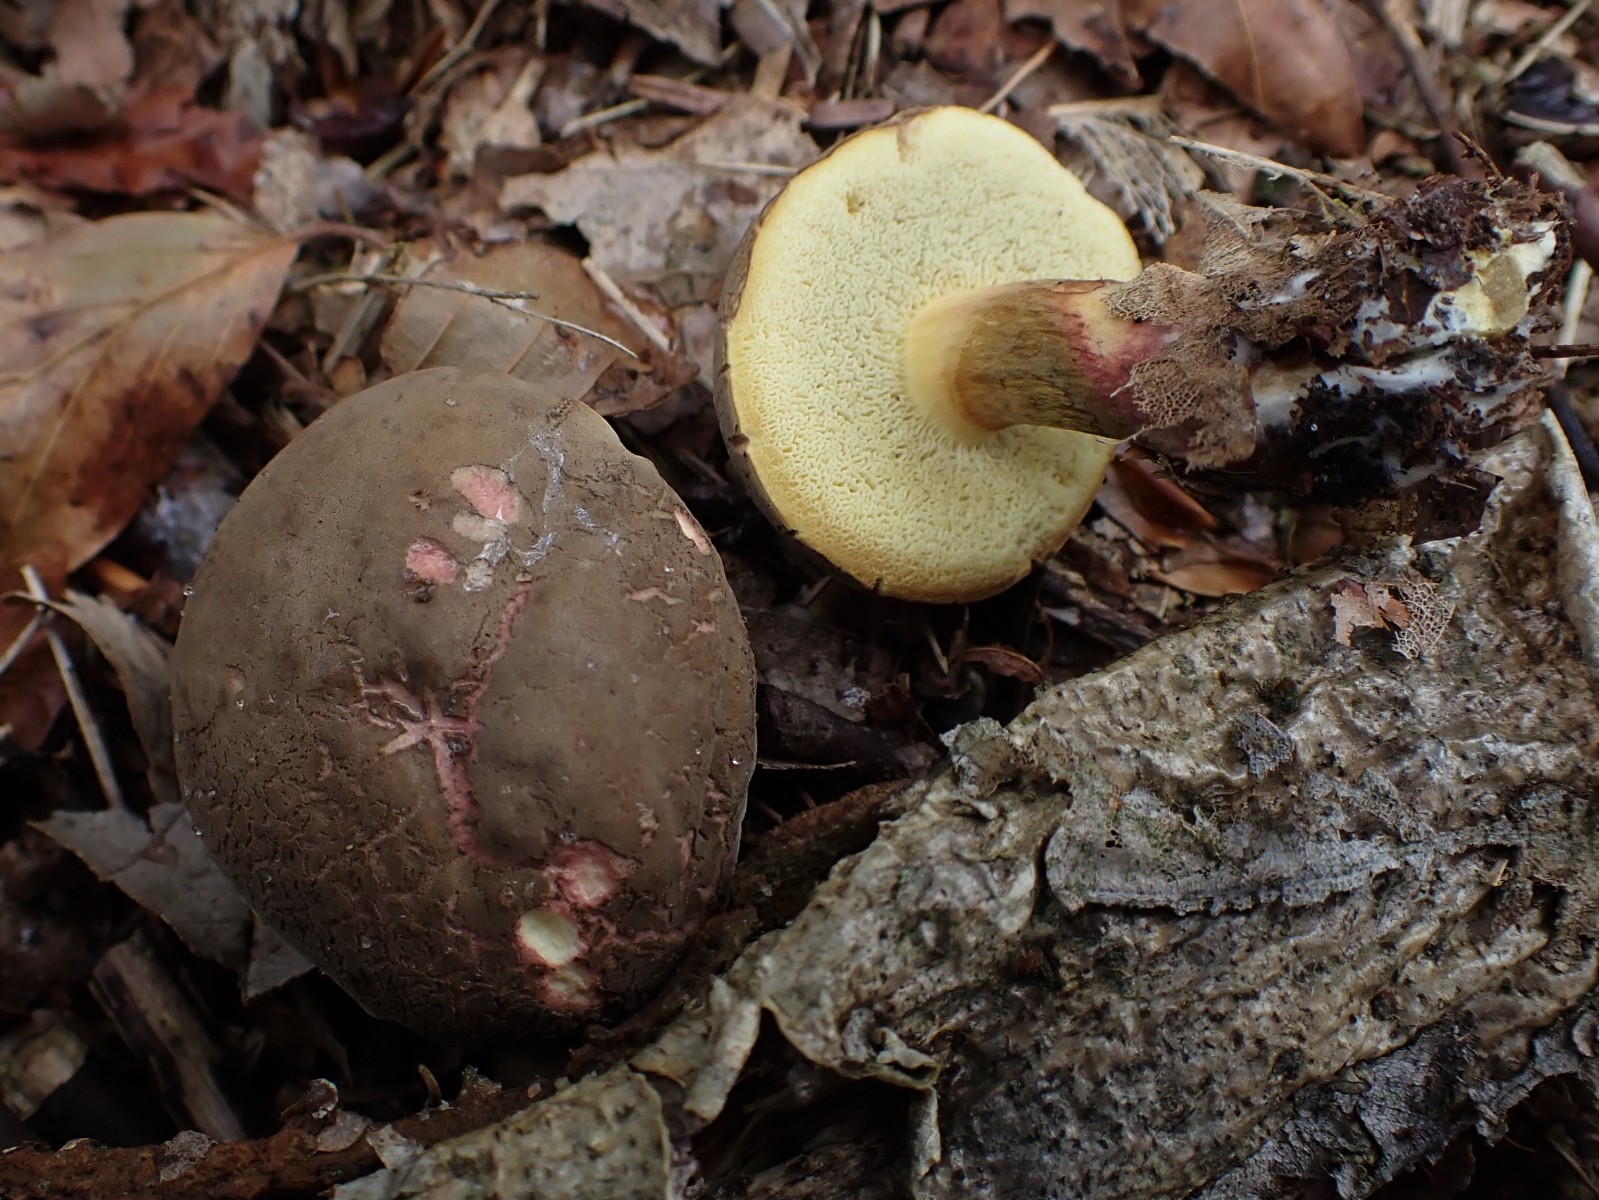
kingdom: Fungi
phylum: Basidiomycota
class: Agaricomycetes
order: Boletales
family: Boletaceae
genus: Xerocomellus
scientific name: Xerocomellus cisalpinus
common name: finsprukken rørhat
